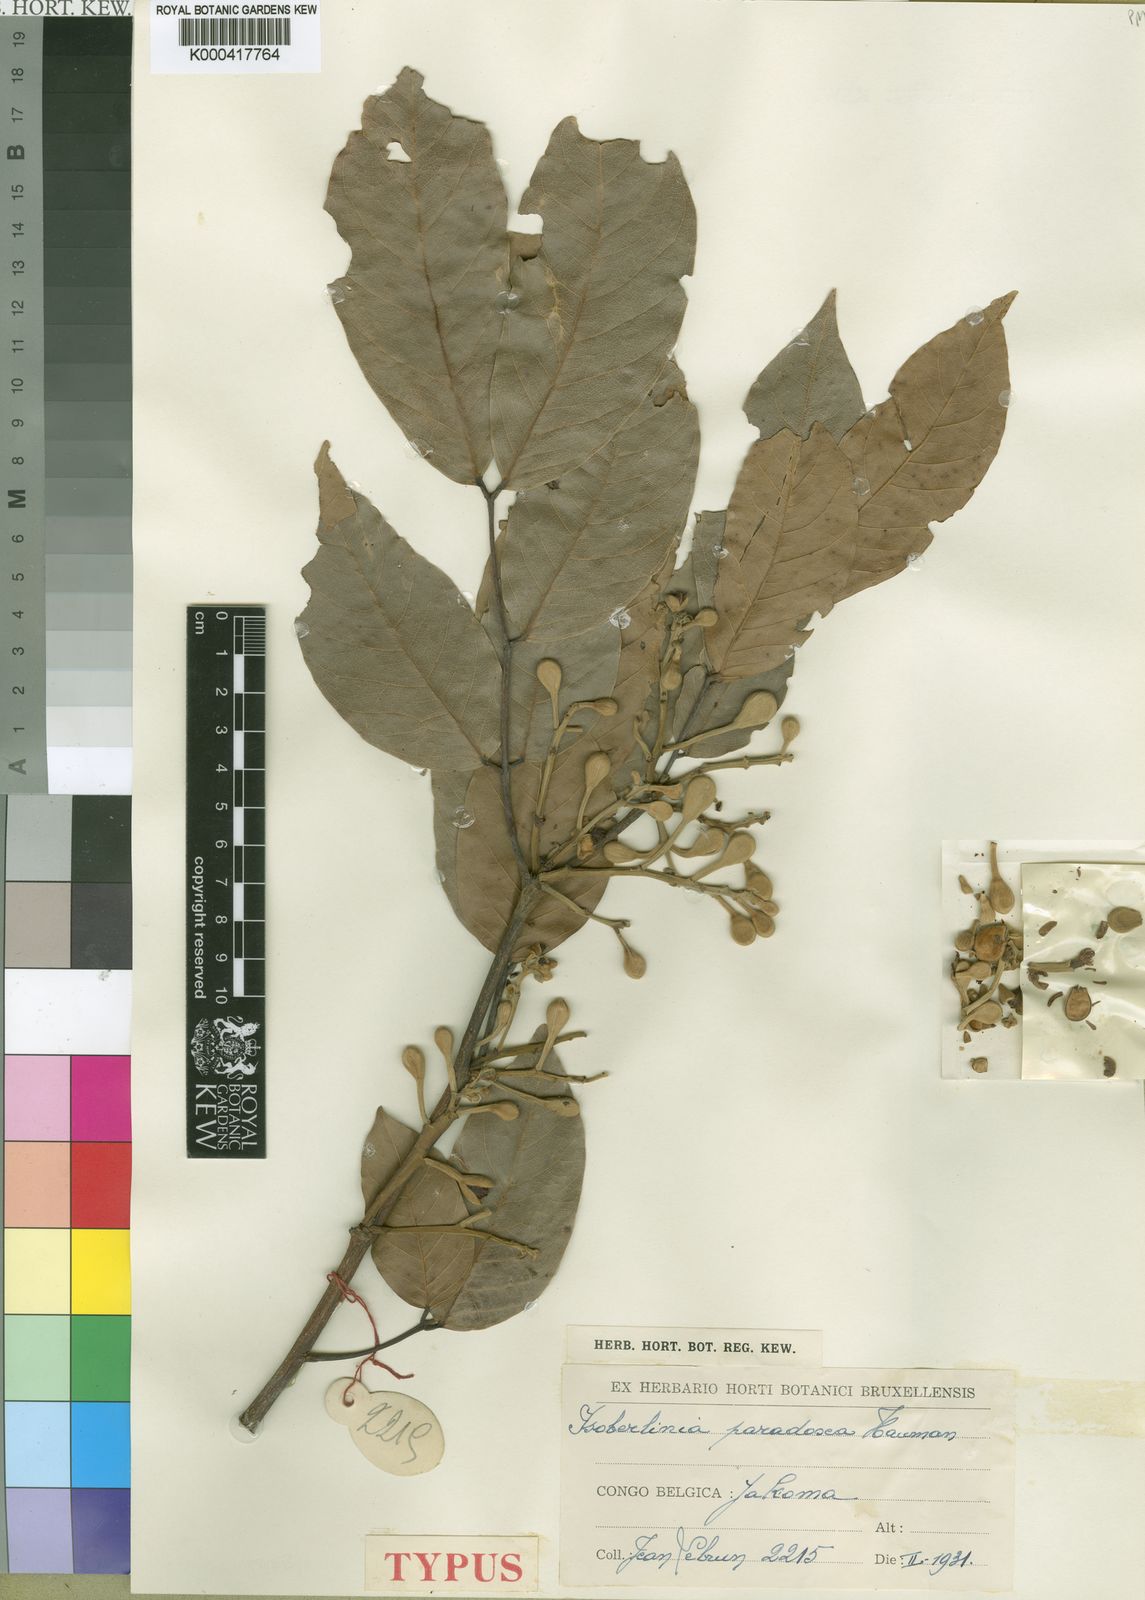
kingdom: Plantae
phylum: Tracheophyta
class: Magnoliopsida
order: Fabales
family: Fabaceae
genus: Isoberlinia
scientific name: Isoberlinia paradoxa
